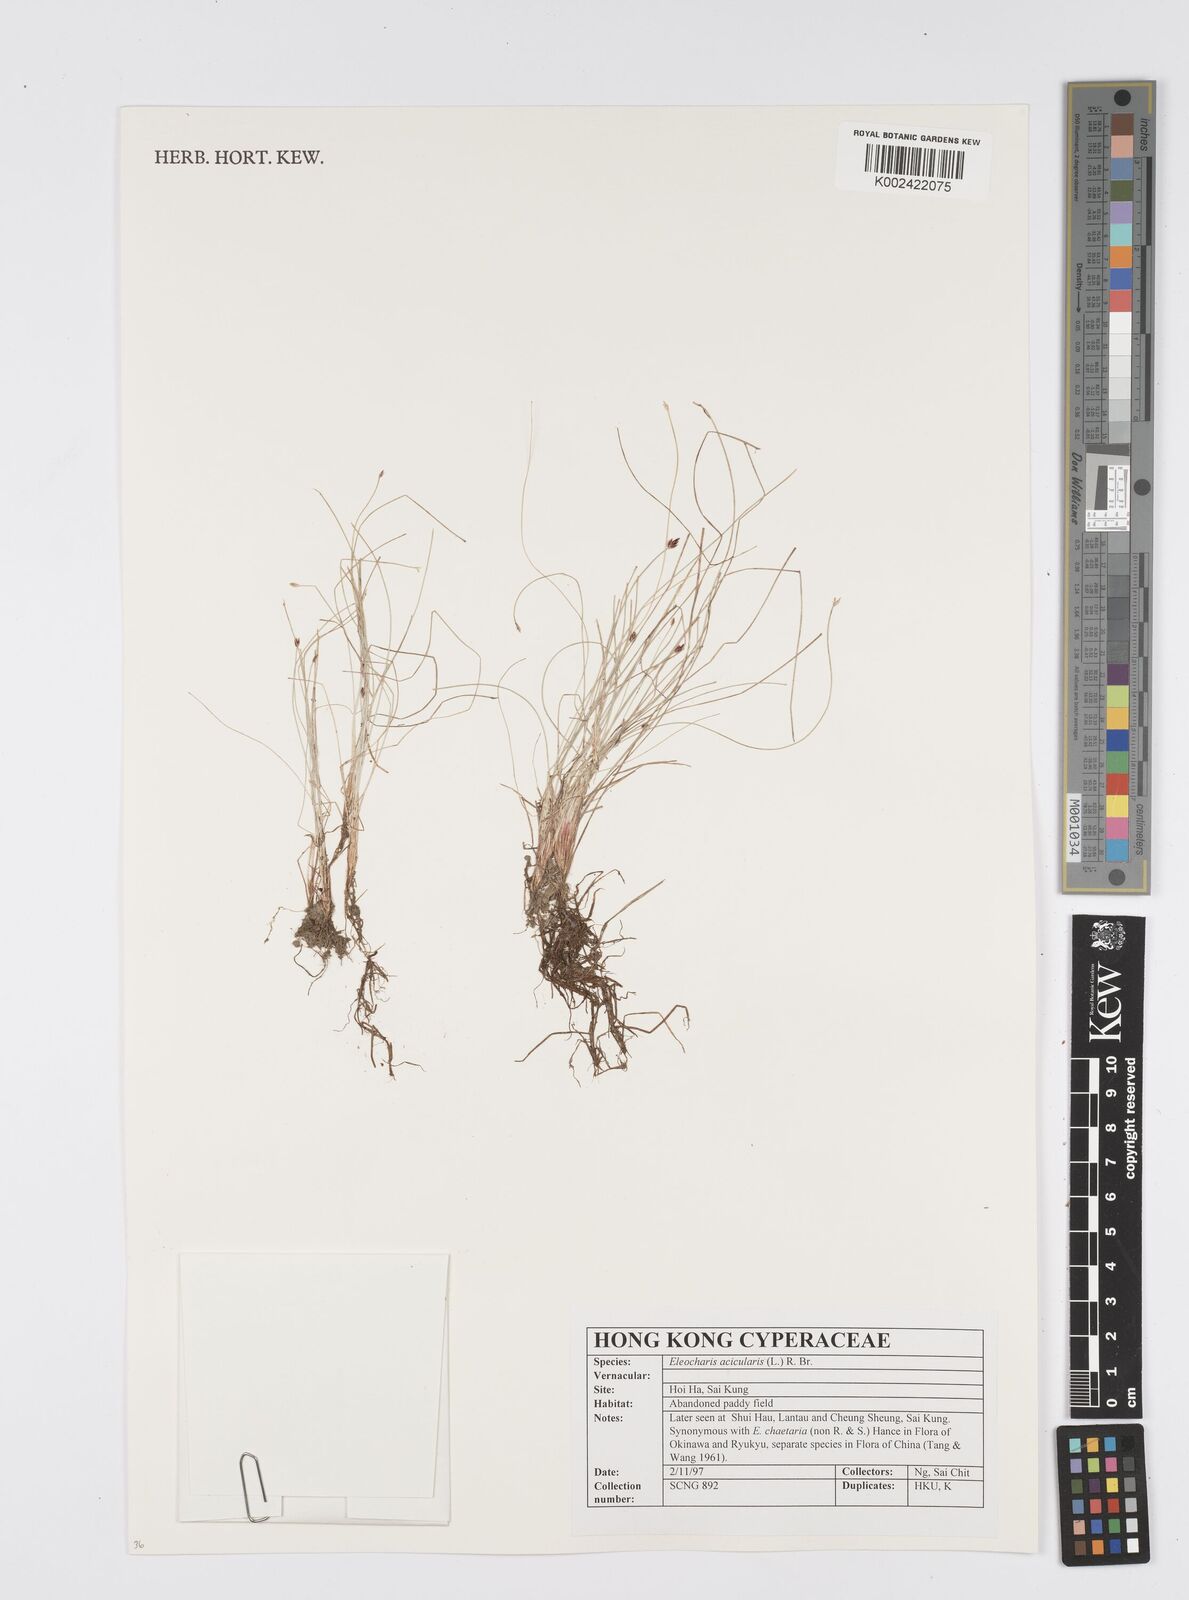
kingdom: Plantae
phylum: Tracheophyta
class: Liliopsida
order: Poales
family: Cyperaceae
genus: Eleocharis
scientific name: Eleocharis acicularis
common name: Needle spike-rush
